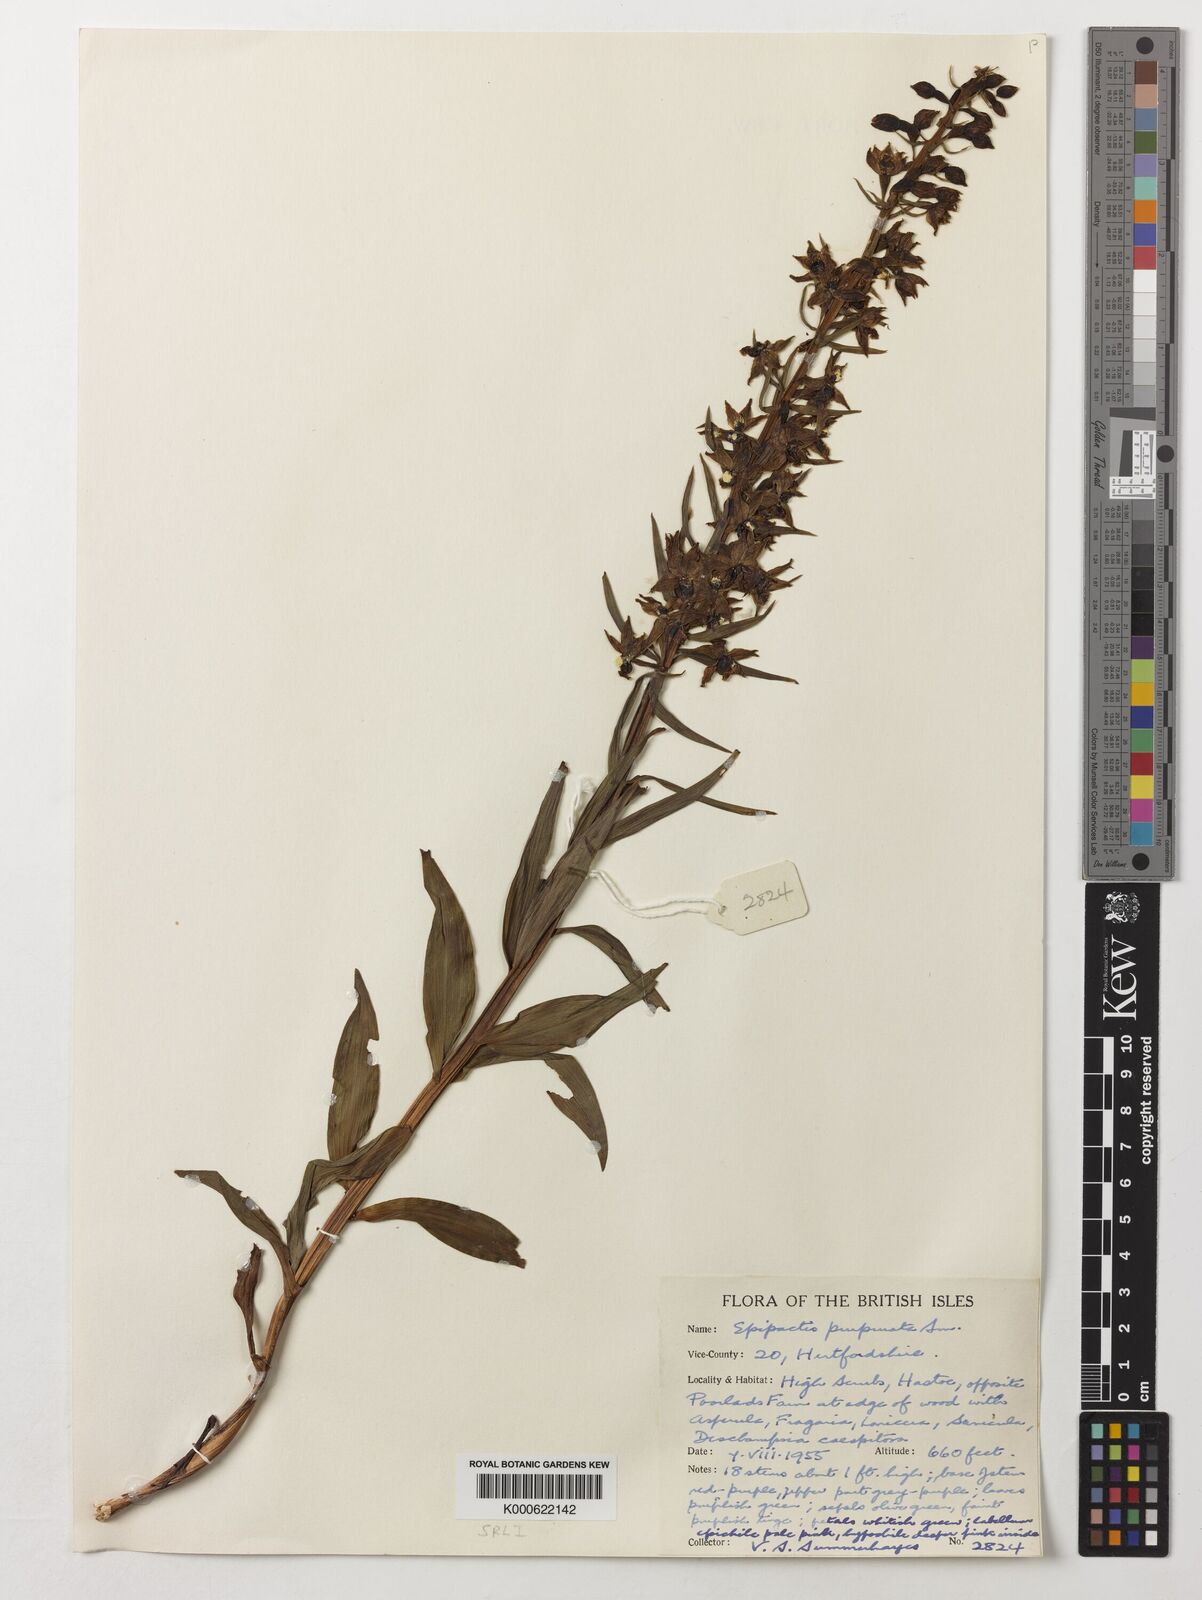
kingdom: Plantae
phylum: Tracheophyta
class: Liliopsida
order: Asparagales
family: Orchidaceae
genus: Epipactis
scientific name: Epipactis purpurata
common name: Violet helleborine
